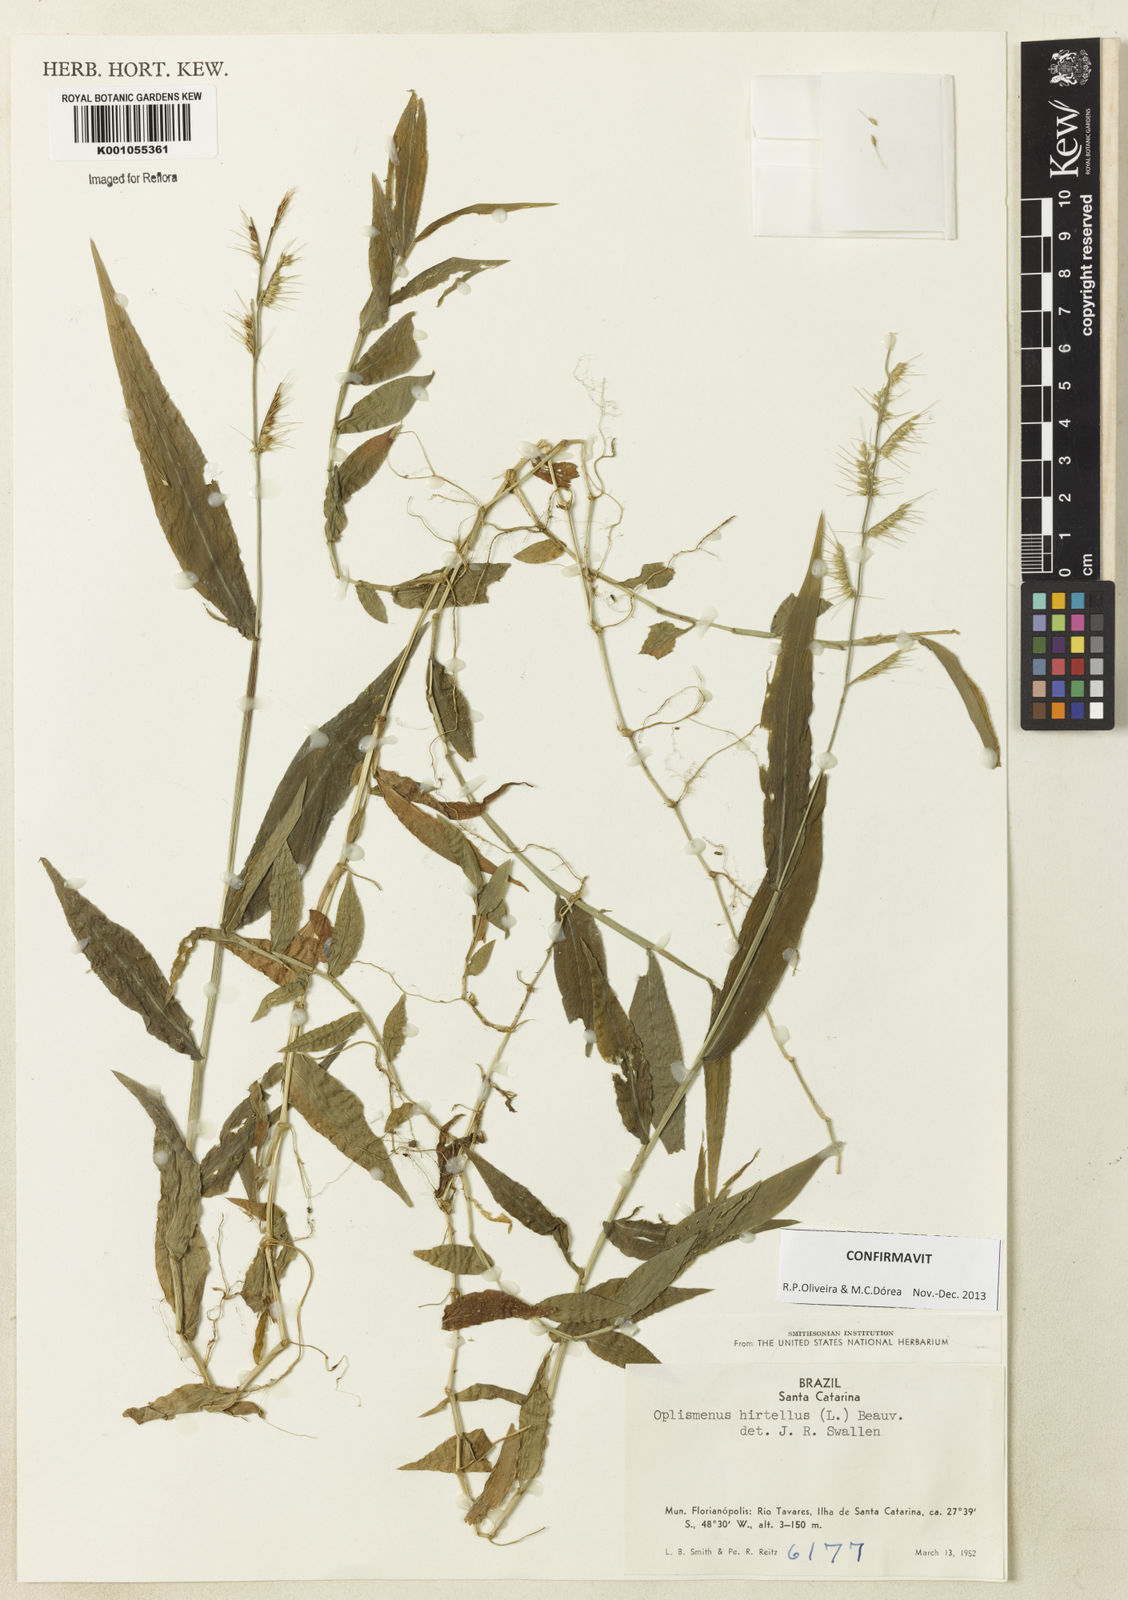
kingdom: Plantae
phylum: Tracheophyta
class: Liliopsida
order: Poales
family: Poaceae
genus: Oplismenus
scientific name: Oplismenus hirtellus
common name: Basketgrass
